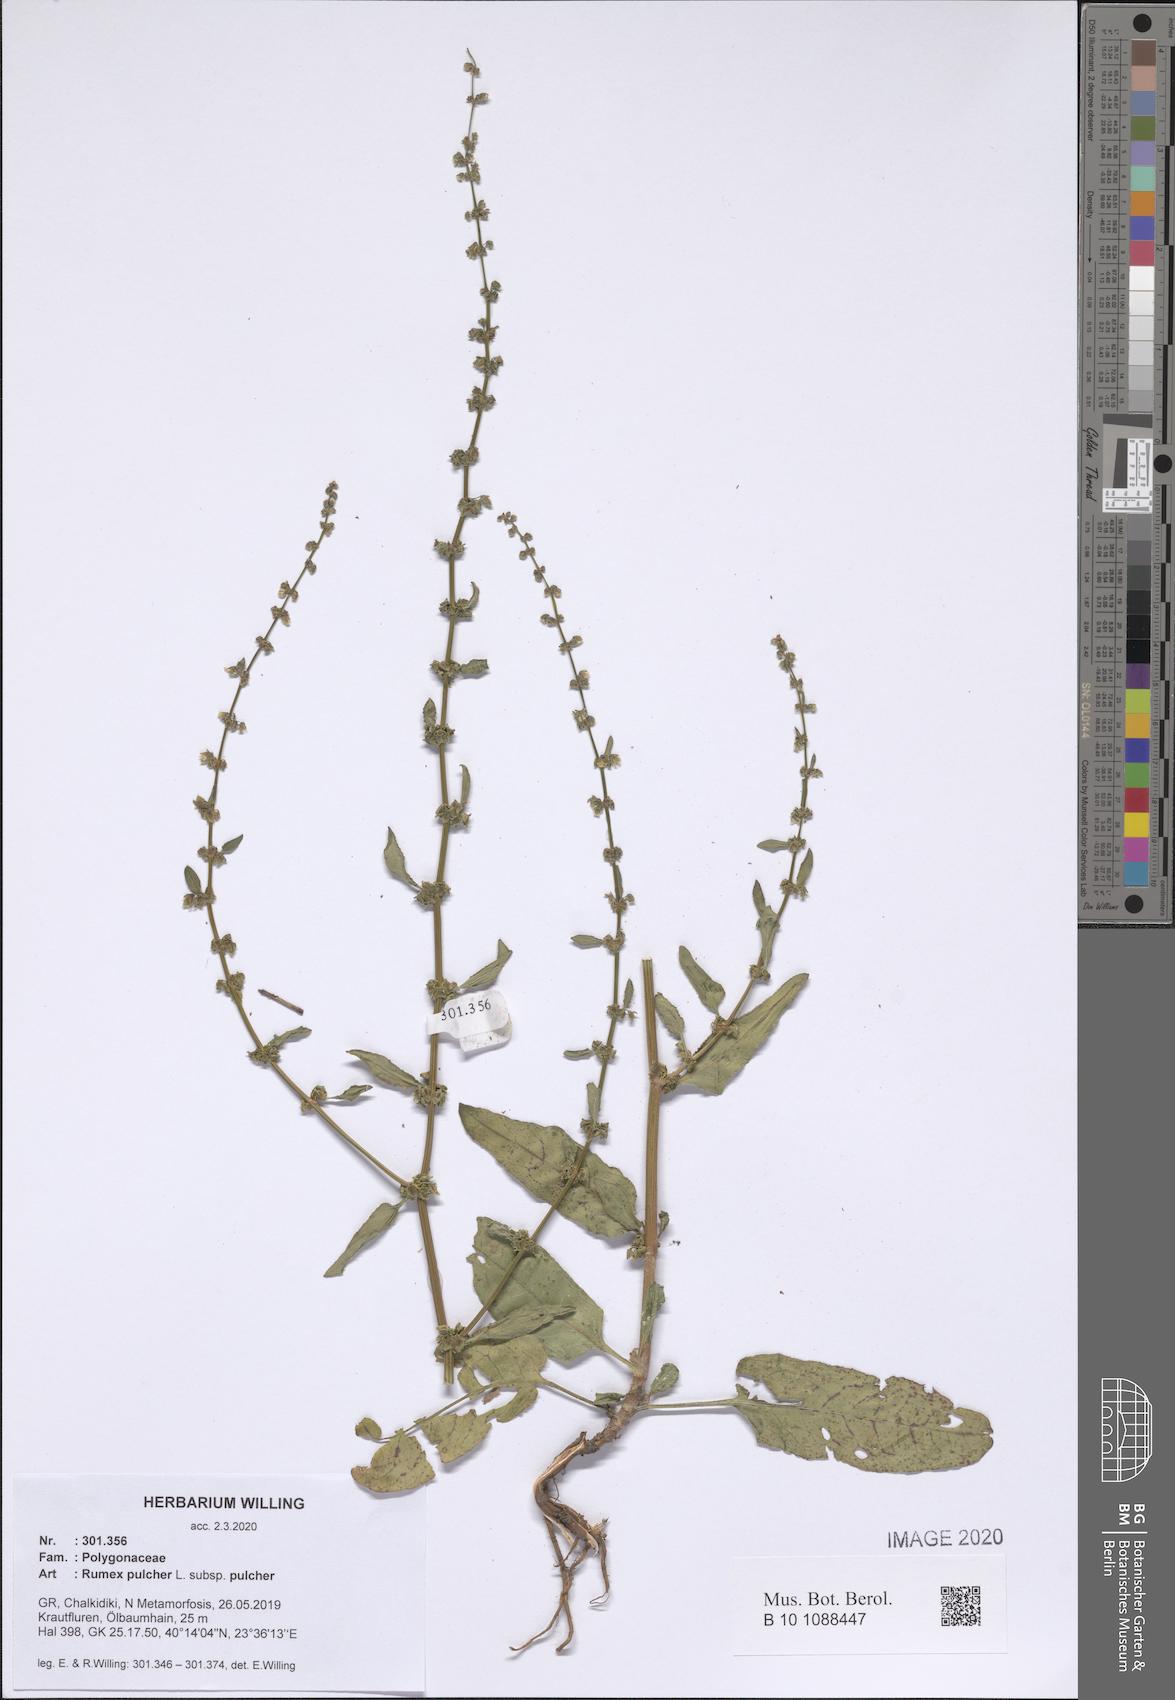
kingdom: Plantae
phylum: Tracheophyta
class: Magnoliopsida
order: Caryophyllales
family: Polygonaceae
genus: Rumex
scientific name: Rumex pulcher
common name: Fiddle dock
